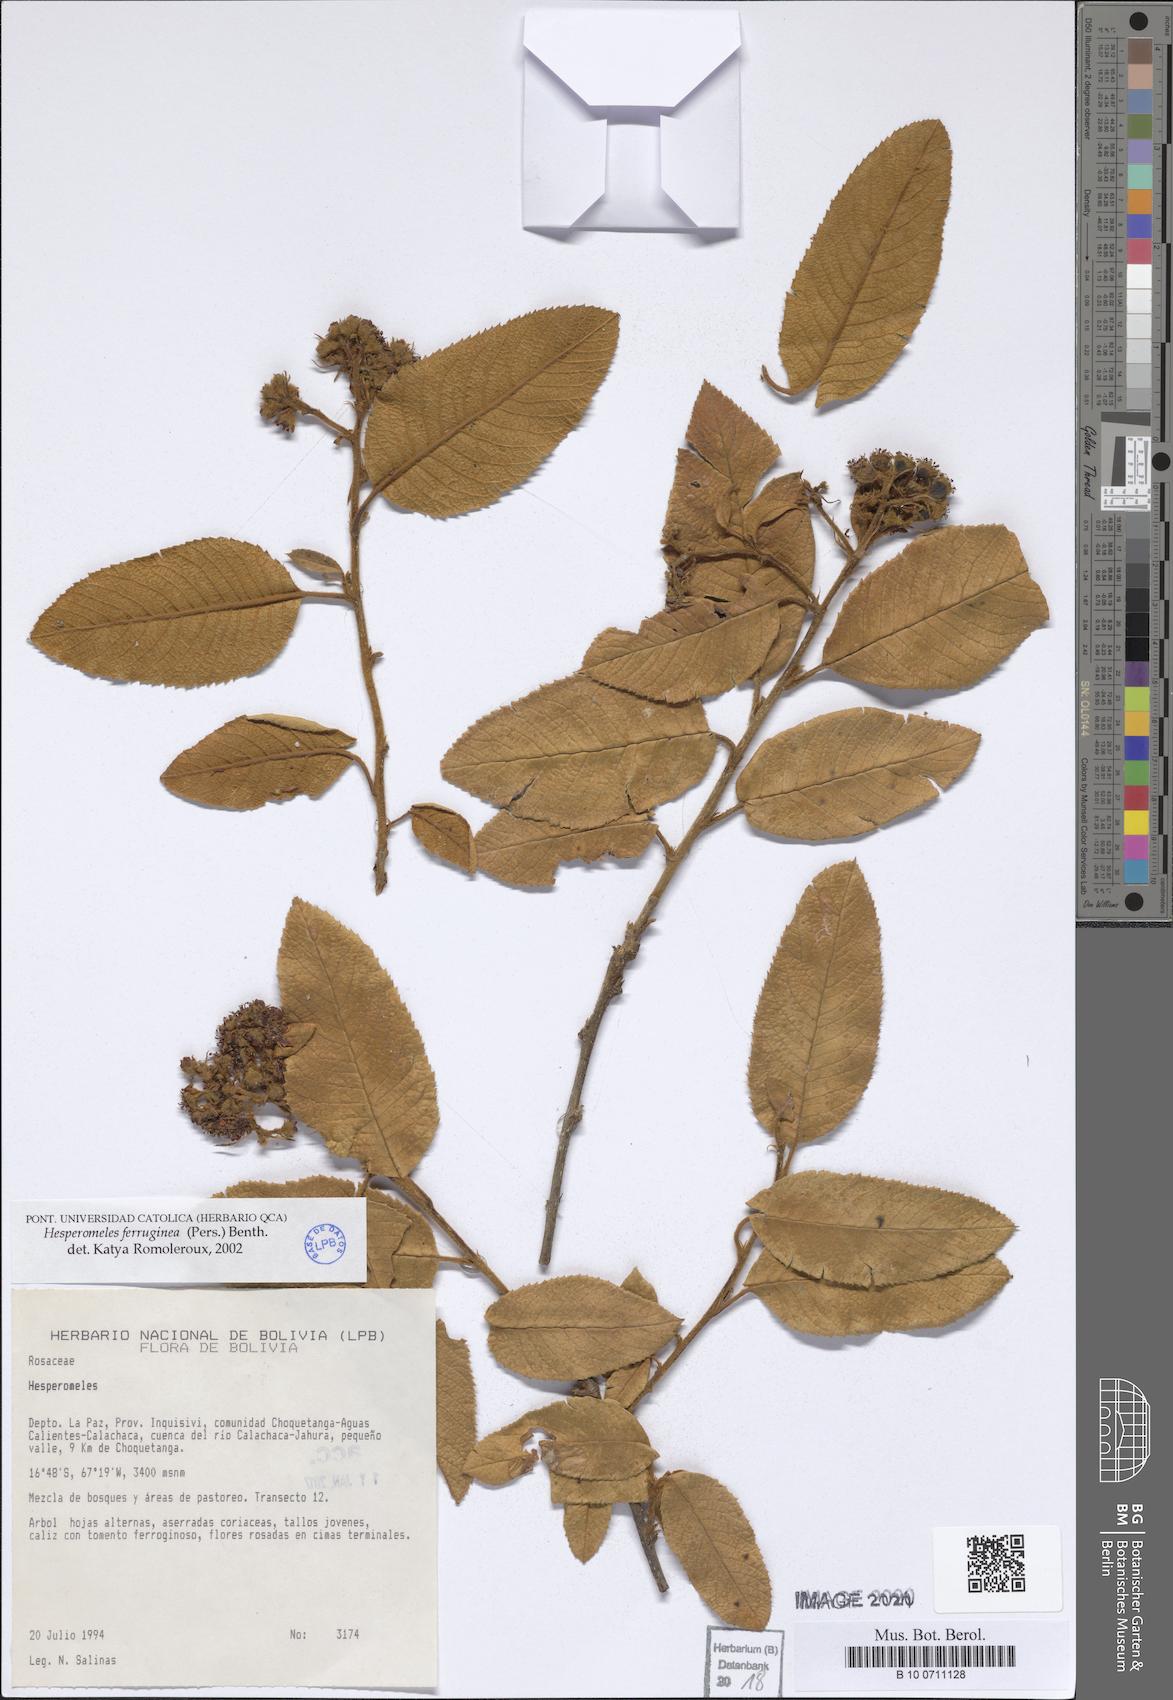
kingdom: Plantae
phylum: Tracheophyta
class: Magnoliopsida
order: Rosales
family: Rosaceae
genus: Hesperomeles
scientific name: Hesperomeles ferruginea
